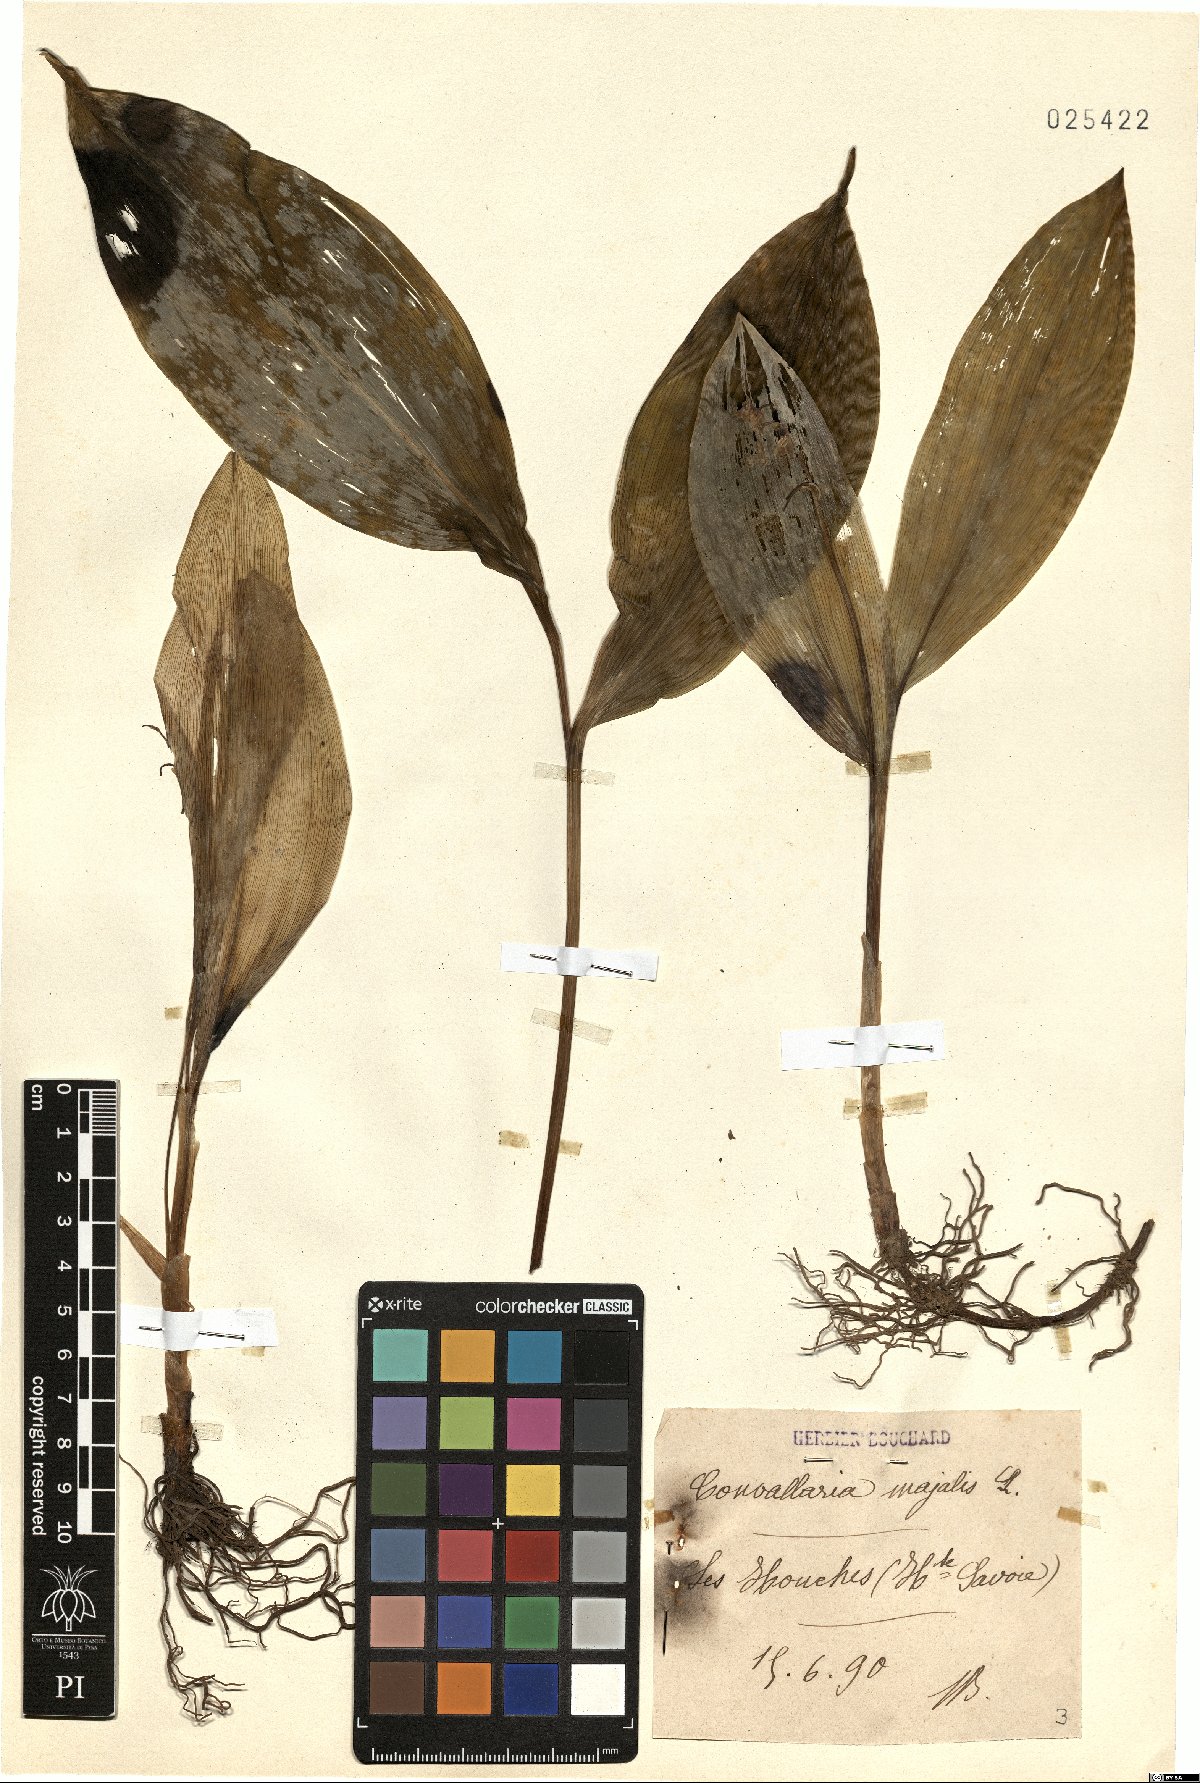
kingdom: Plantae
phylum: Tracheophyta
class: Liliopsida
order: Asparagales
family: Asparagaceae
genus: Convallaria
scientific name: Convallaria majalis
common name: Lily-of-the-valley
